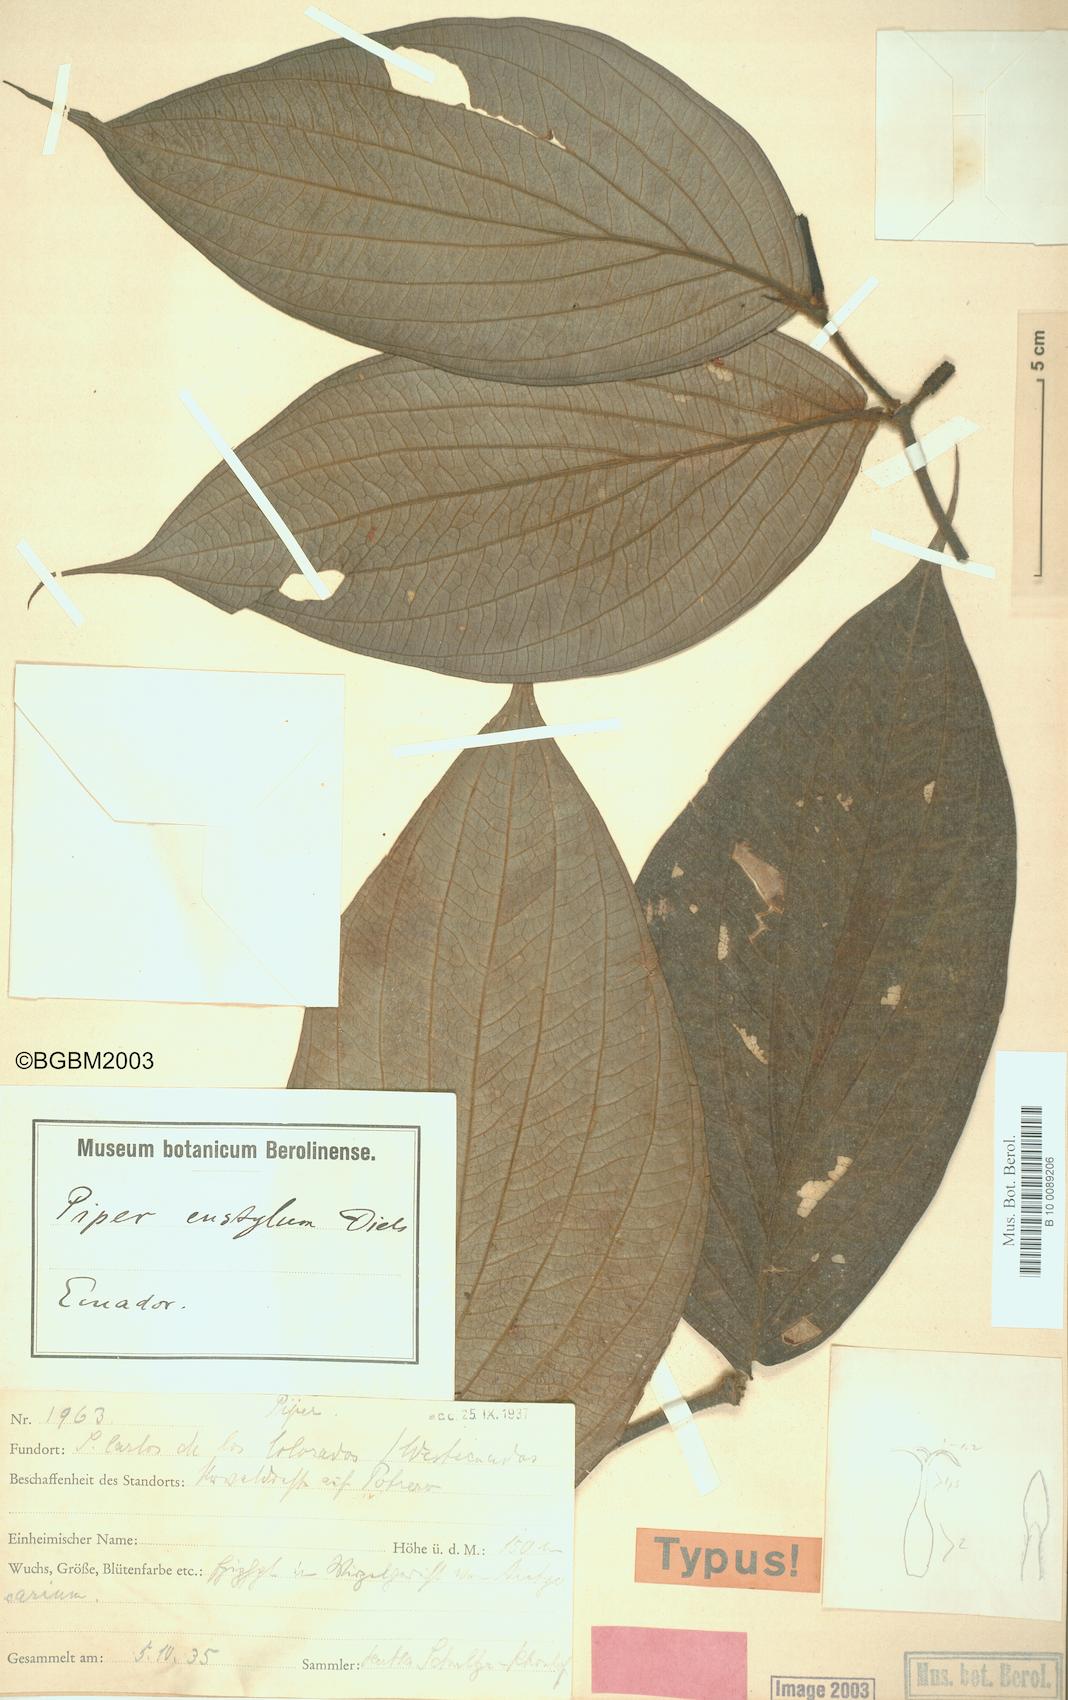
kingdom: Plantae
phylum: Tracheophyta
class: Magnoliopsida
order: Piperales
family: Piperaceae
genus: Piper
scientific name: Piper eustylum
